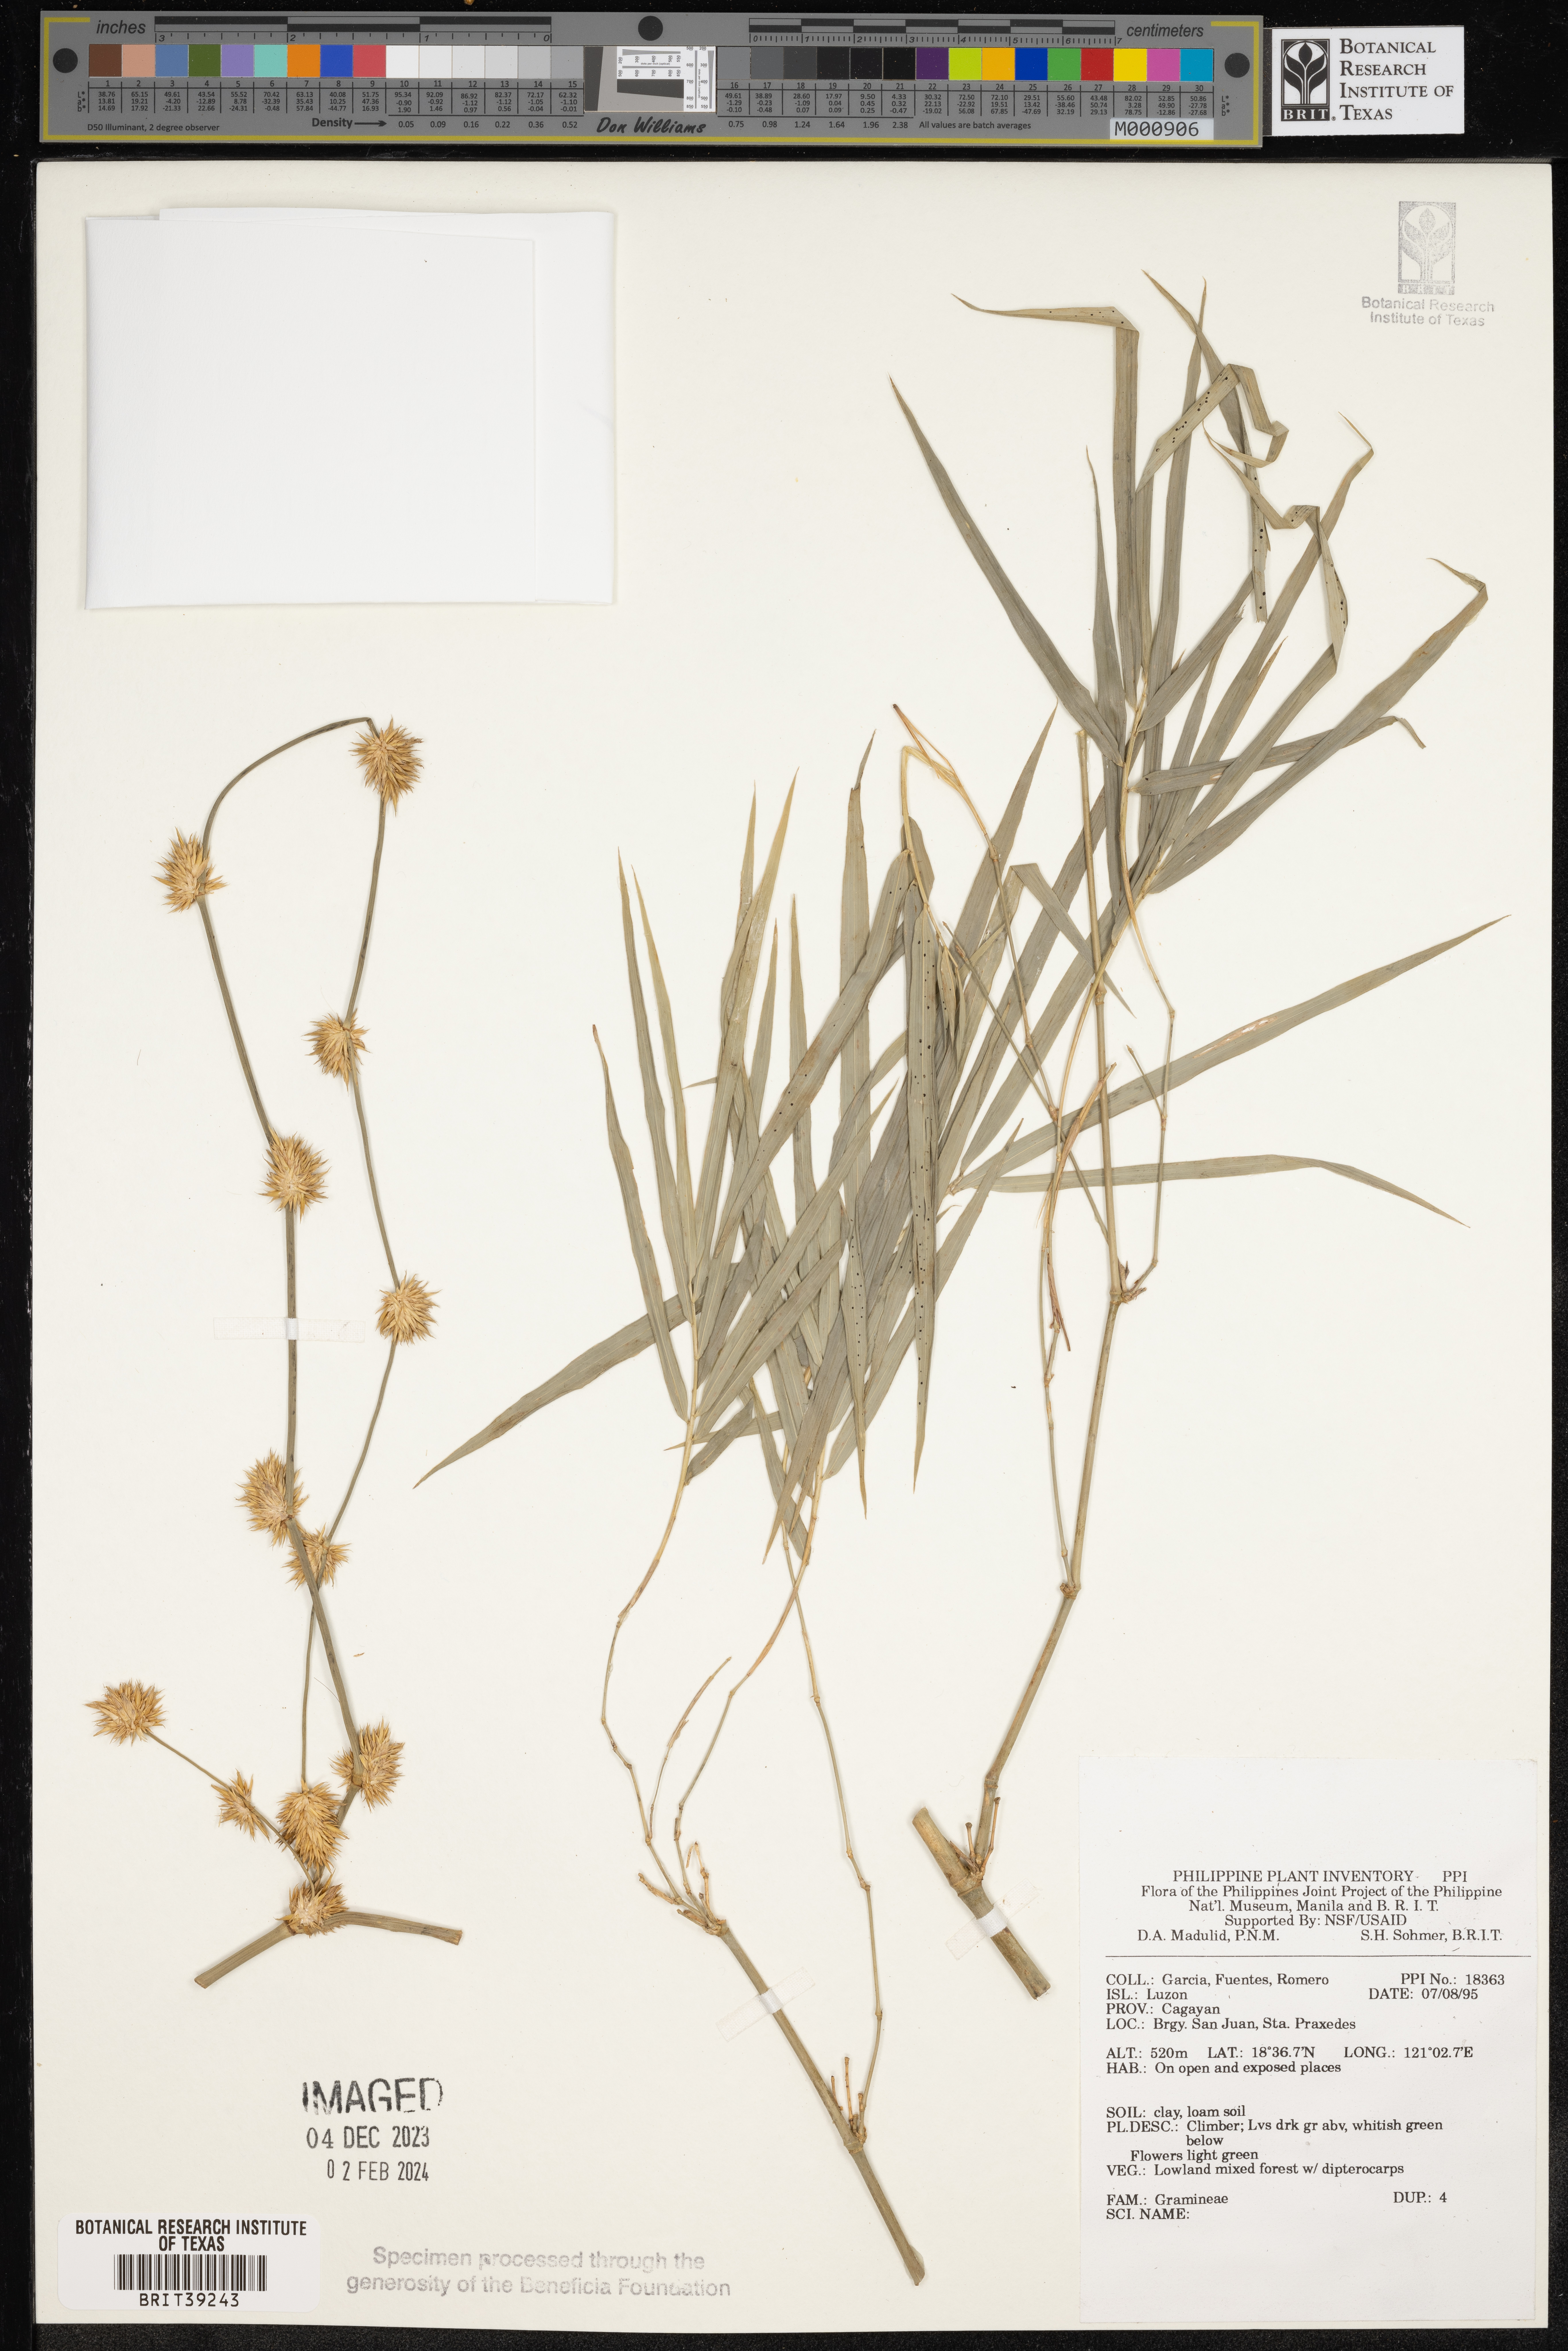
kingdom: Plantae
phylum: Tracheophyta
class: Liliopsida
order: Poales
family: Poaceae
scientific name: Poaceae
